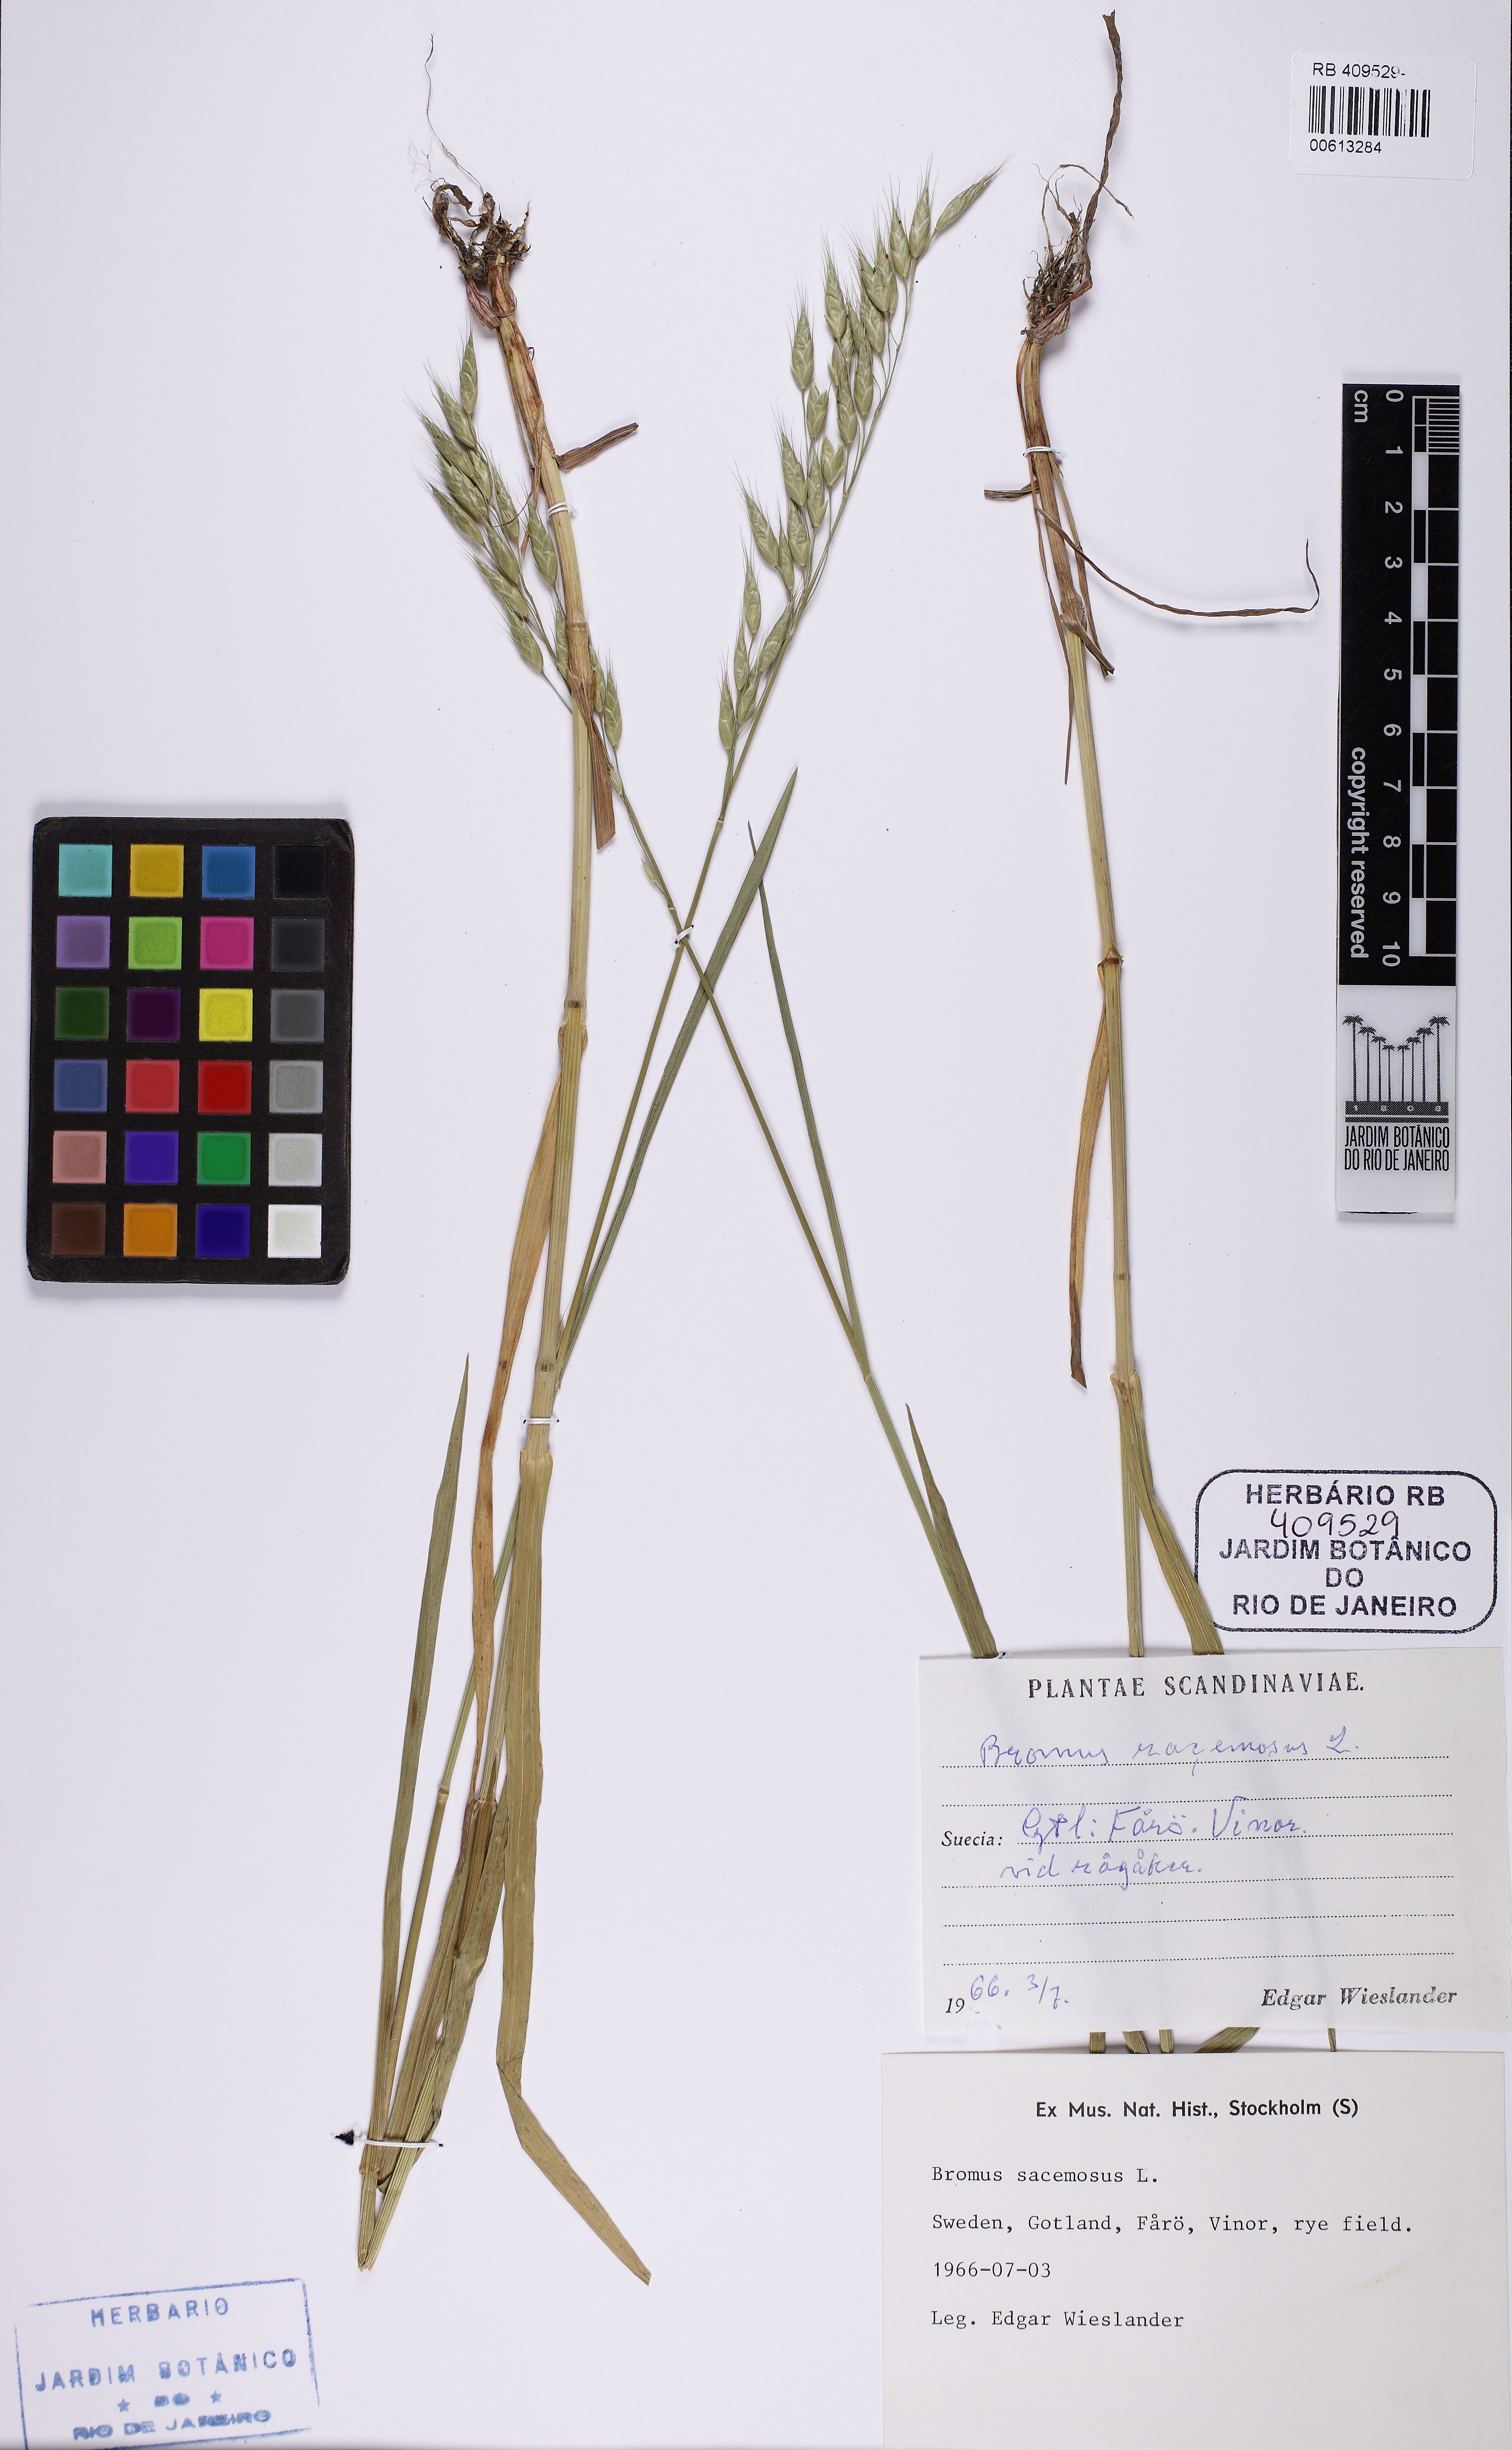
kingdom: Plantae
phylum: Tracheophyta
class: Liliopsida
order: Poales
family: Poaceae
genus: Bromus
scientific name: Bromus racemosus
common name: Bald brome
